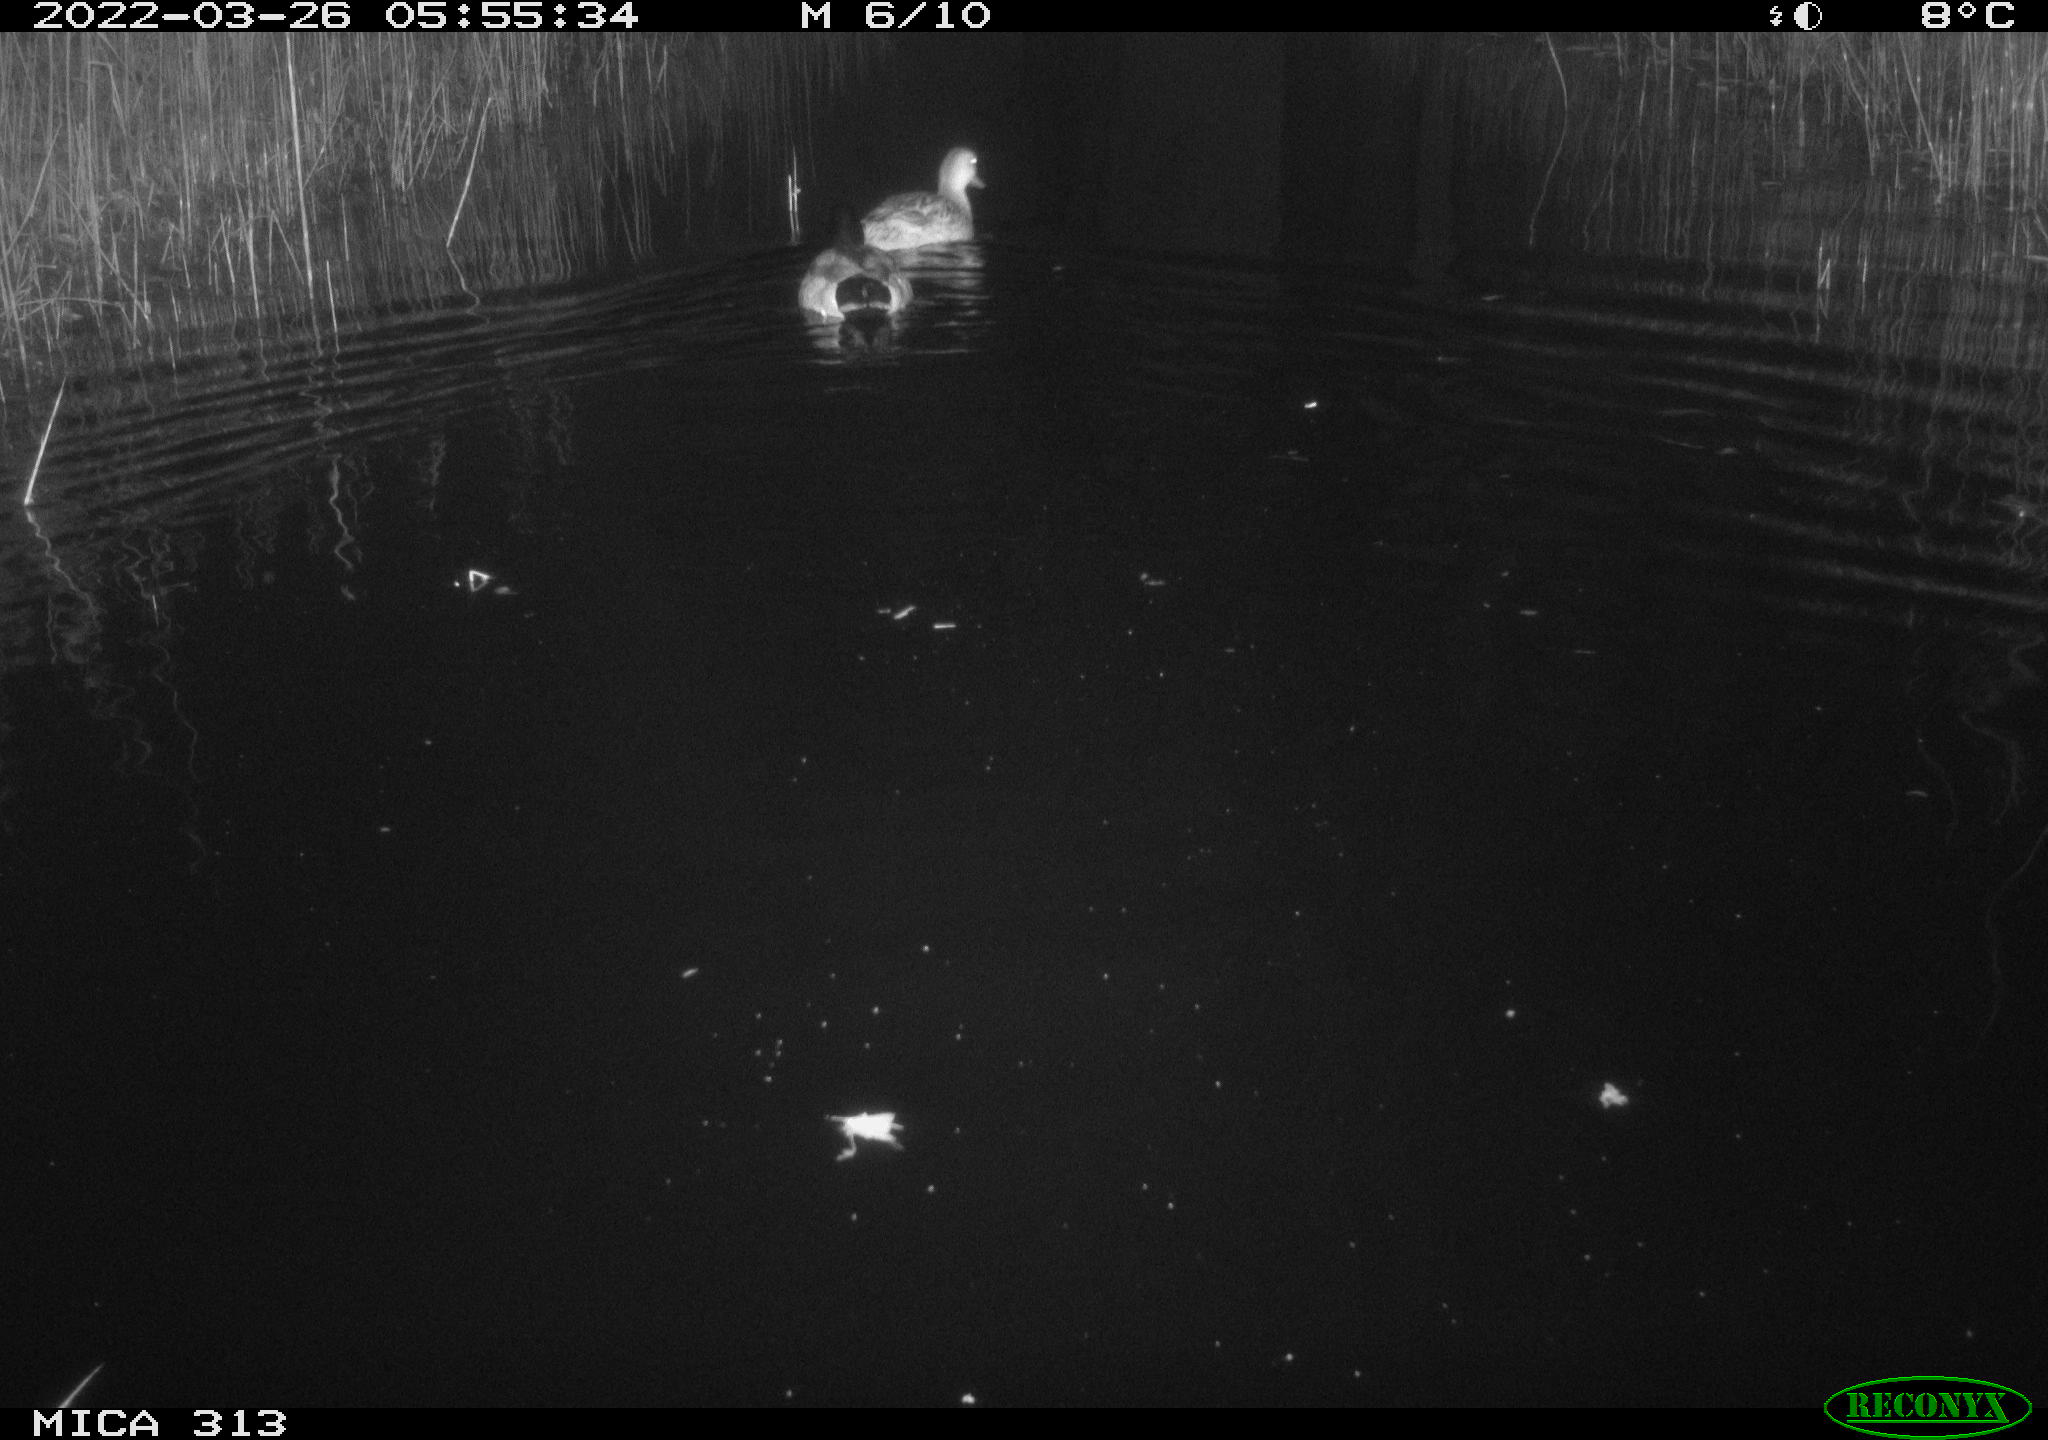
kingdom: Animalia
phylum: Chordata
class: Aves
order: Anseriformes
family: Anatidae
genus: Anas
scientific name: Anas platyrhynchos
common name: Mallard
